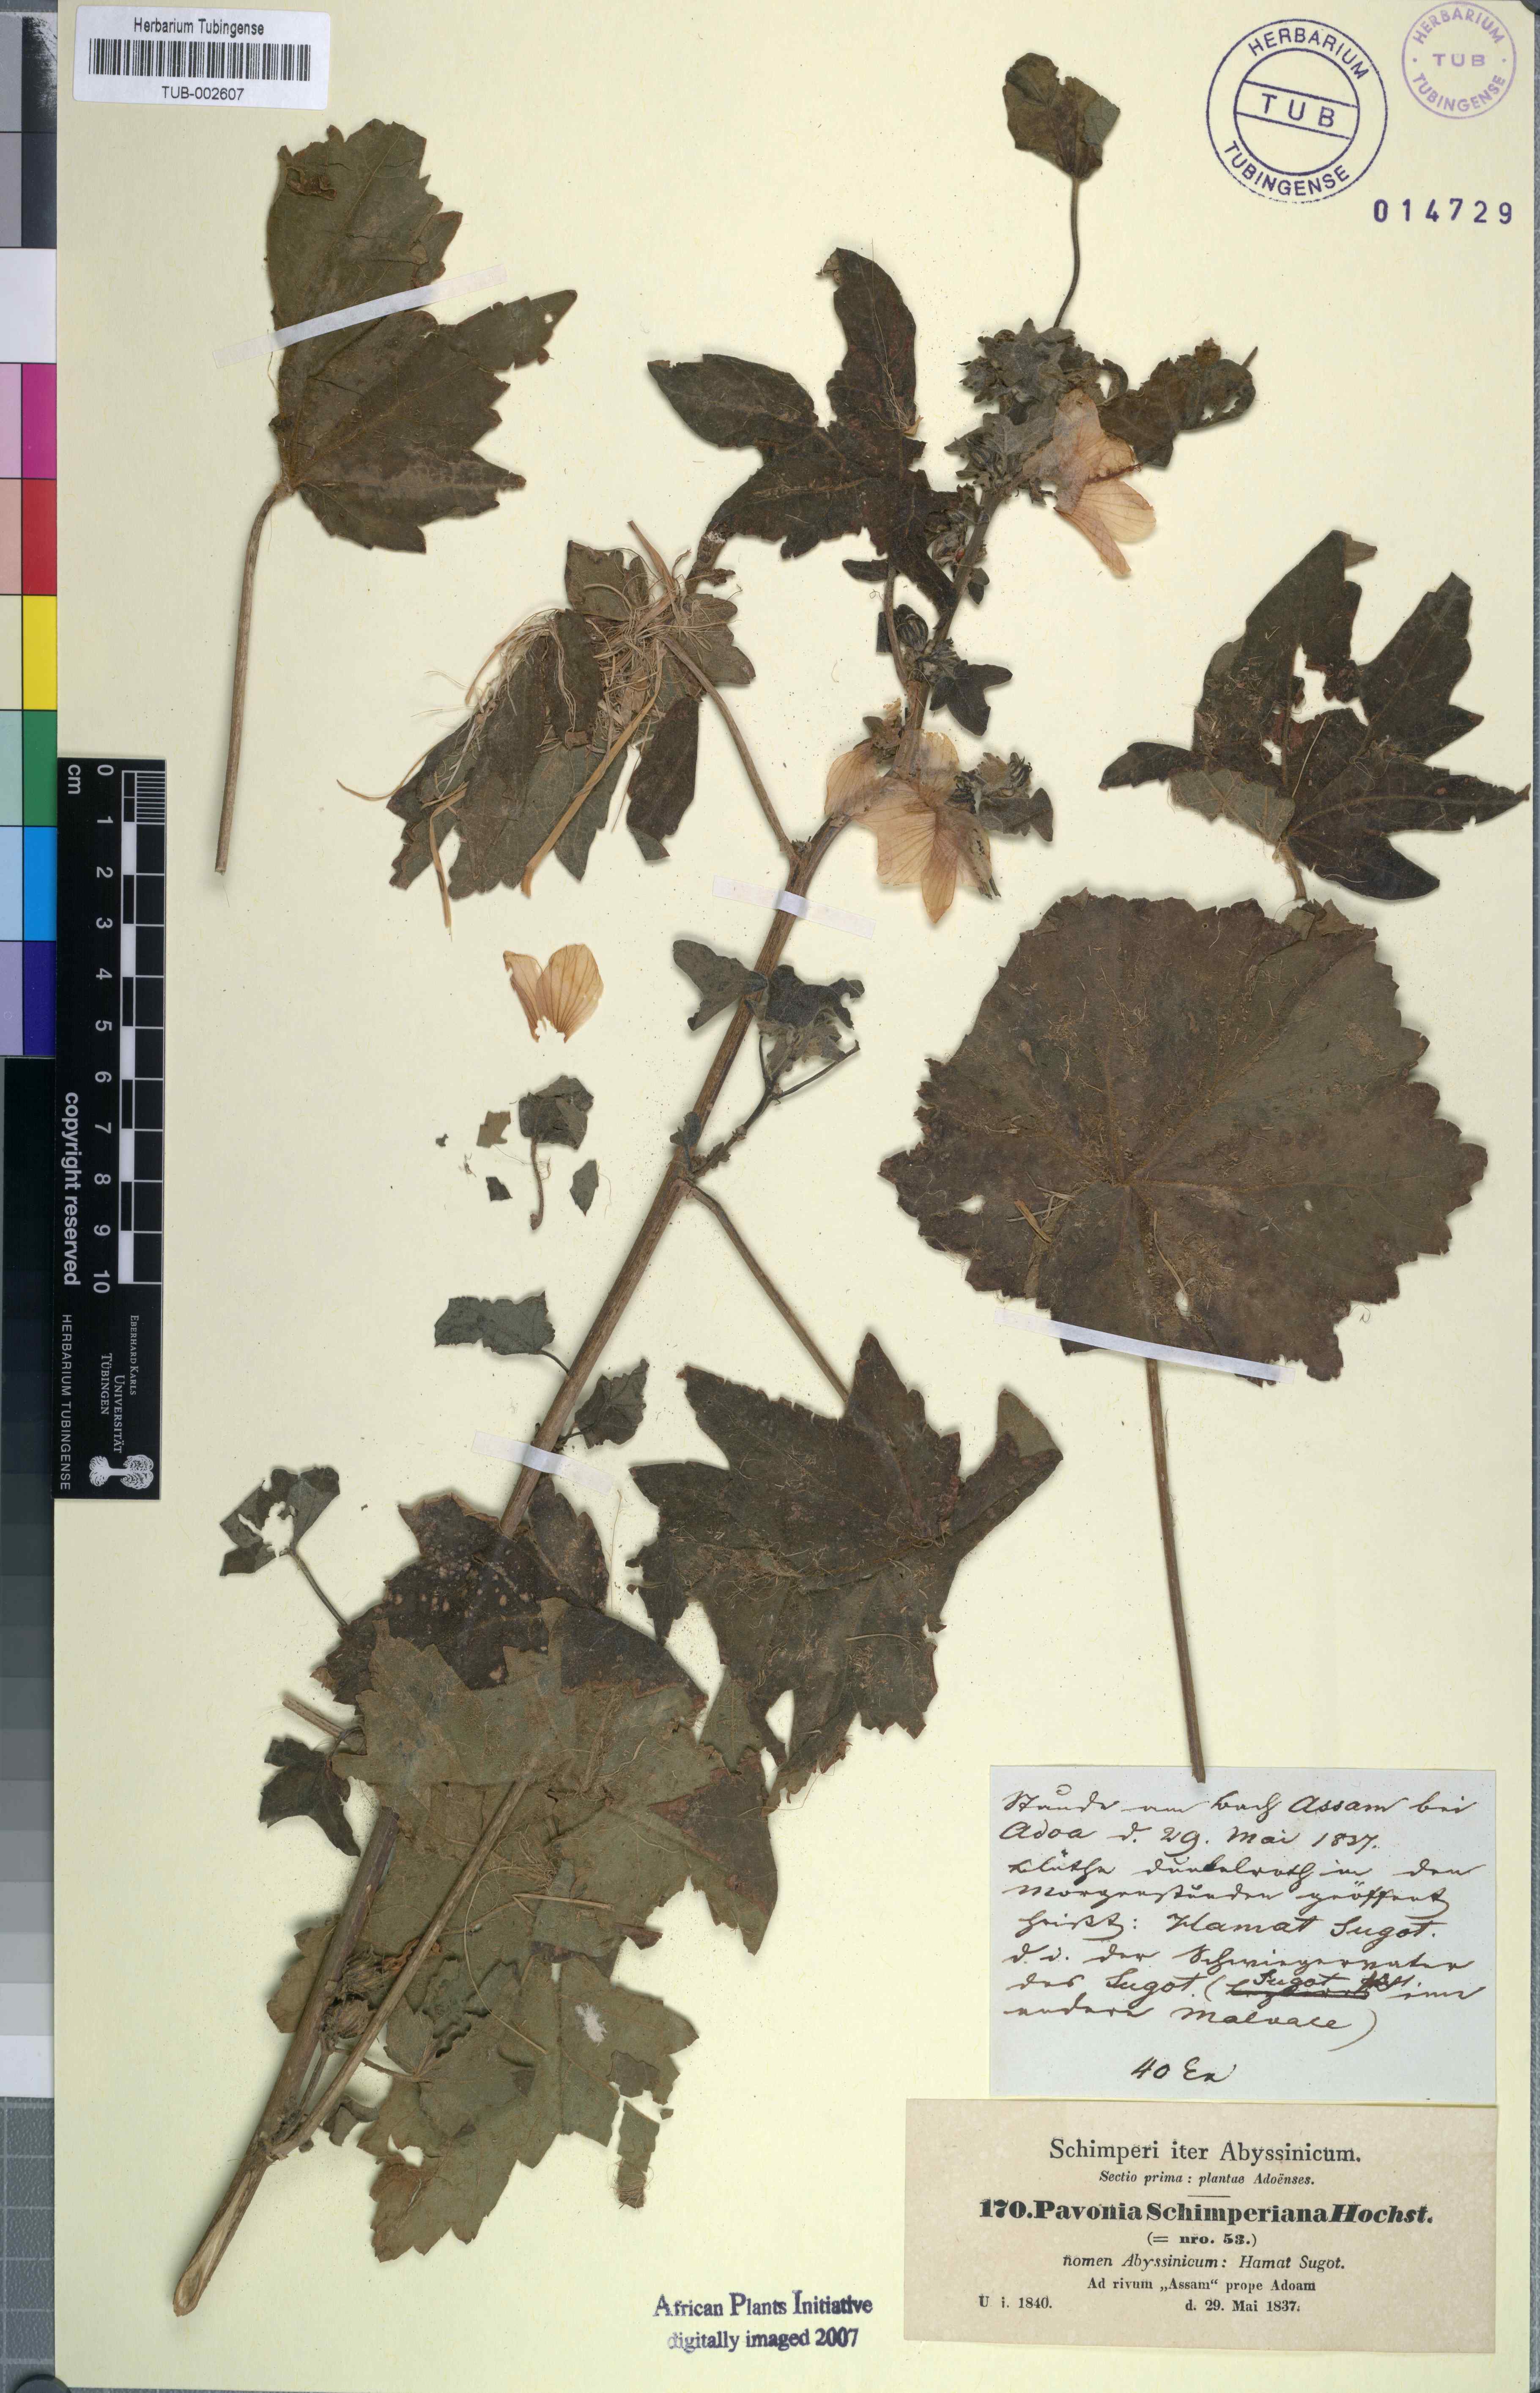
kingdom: Plantae
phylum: Tracheophyta
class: Magnoliopsida
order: Malvales
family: Malvaceae
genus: Pavonia
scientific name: Pavonia schimperiana
